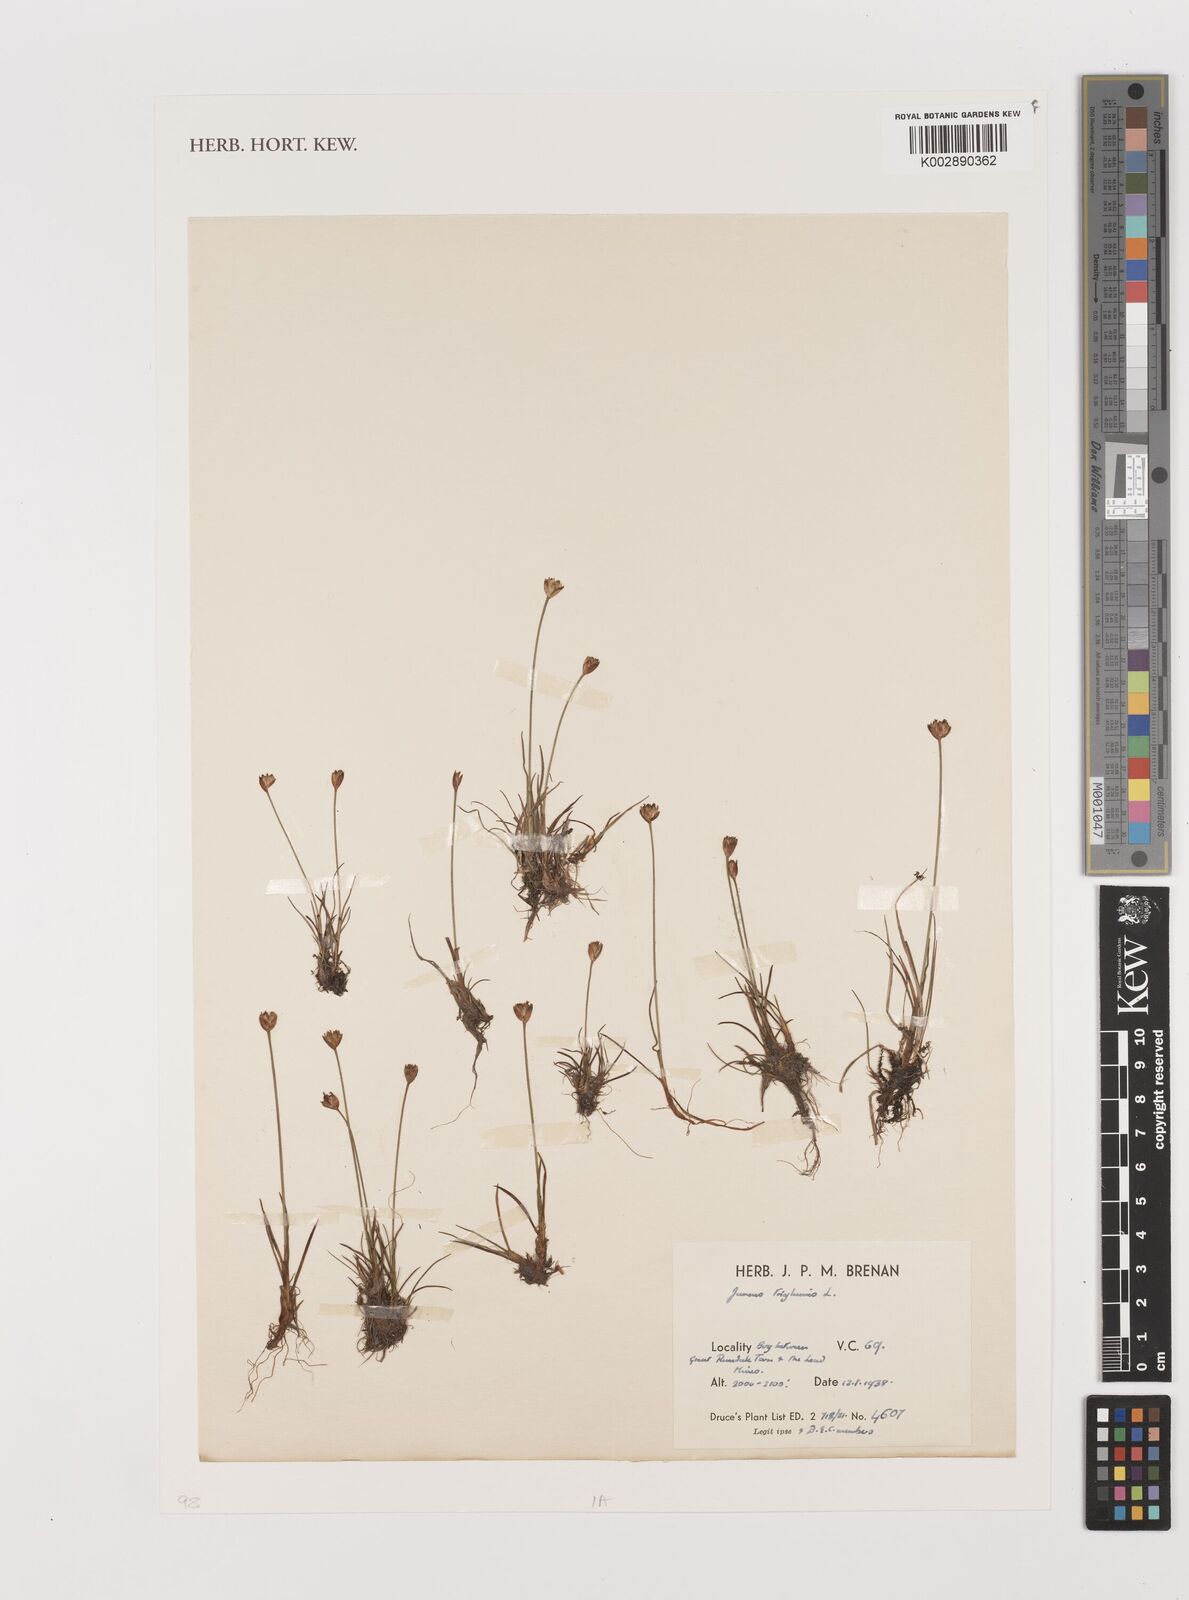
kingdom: Plantae
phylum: Tracheophyta
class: Liliopsida
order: Poales
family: Juncaceae
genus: Juncus
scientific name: Juncus triglumis
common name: Three-flowered rush
